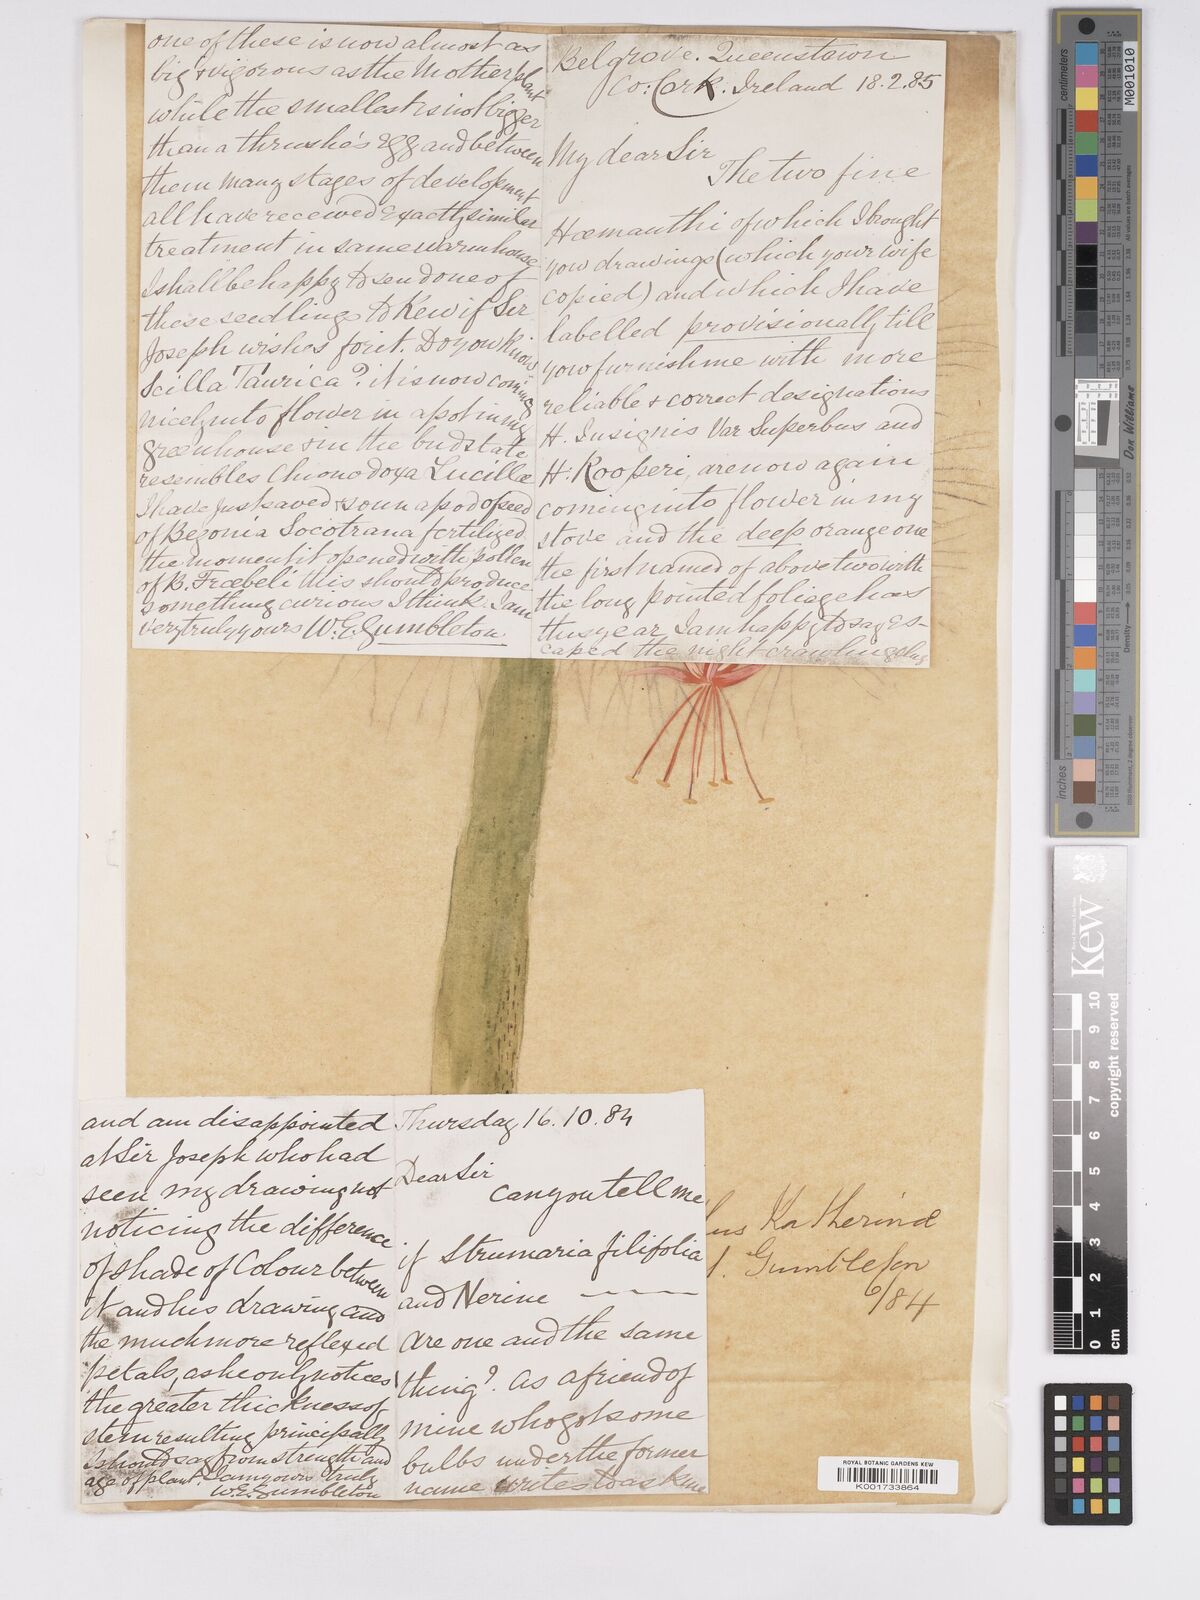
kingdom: Plantae
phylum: Tracheophyta
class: Liliopsida
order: Asparagales
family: Amaryllidaceae
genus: Scadoxus
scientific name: Scadoxus multiflorus
